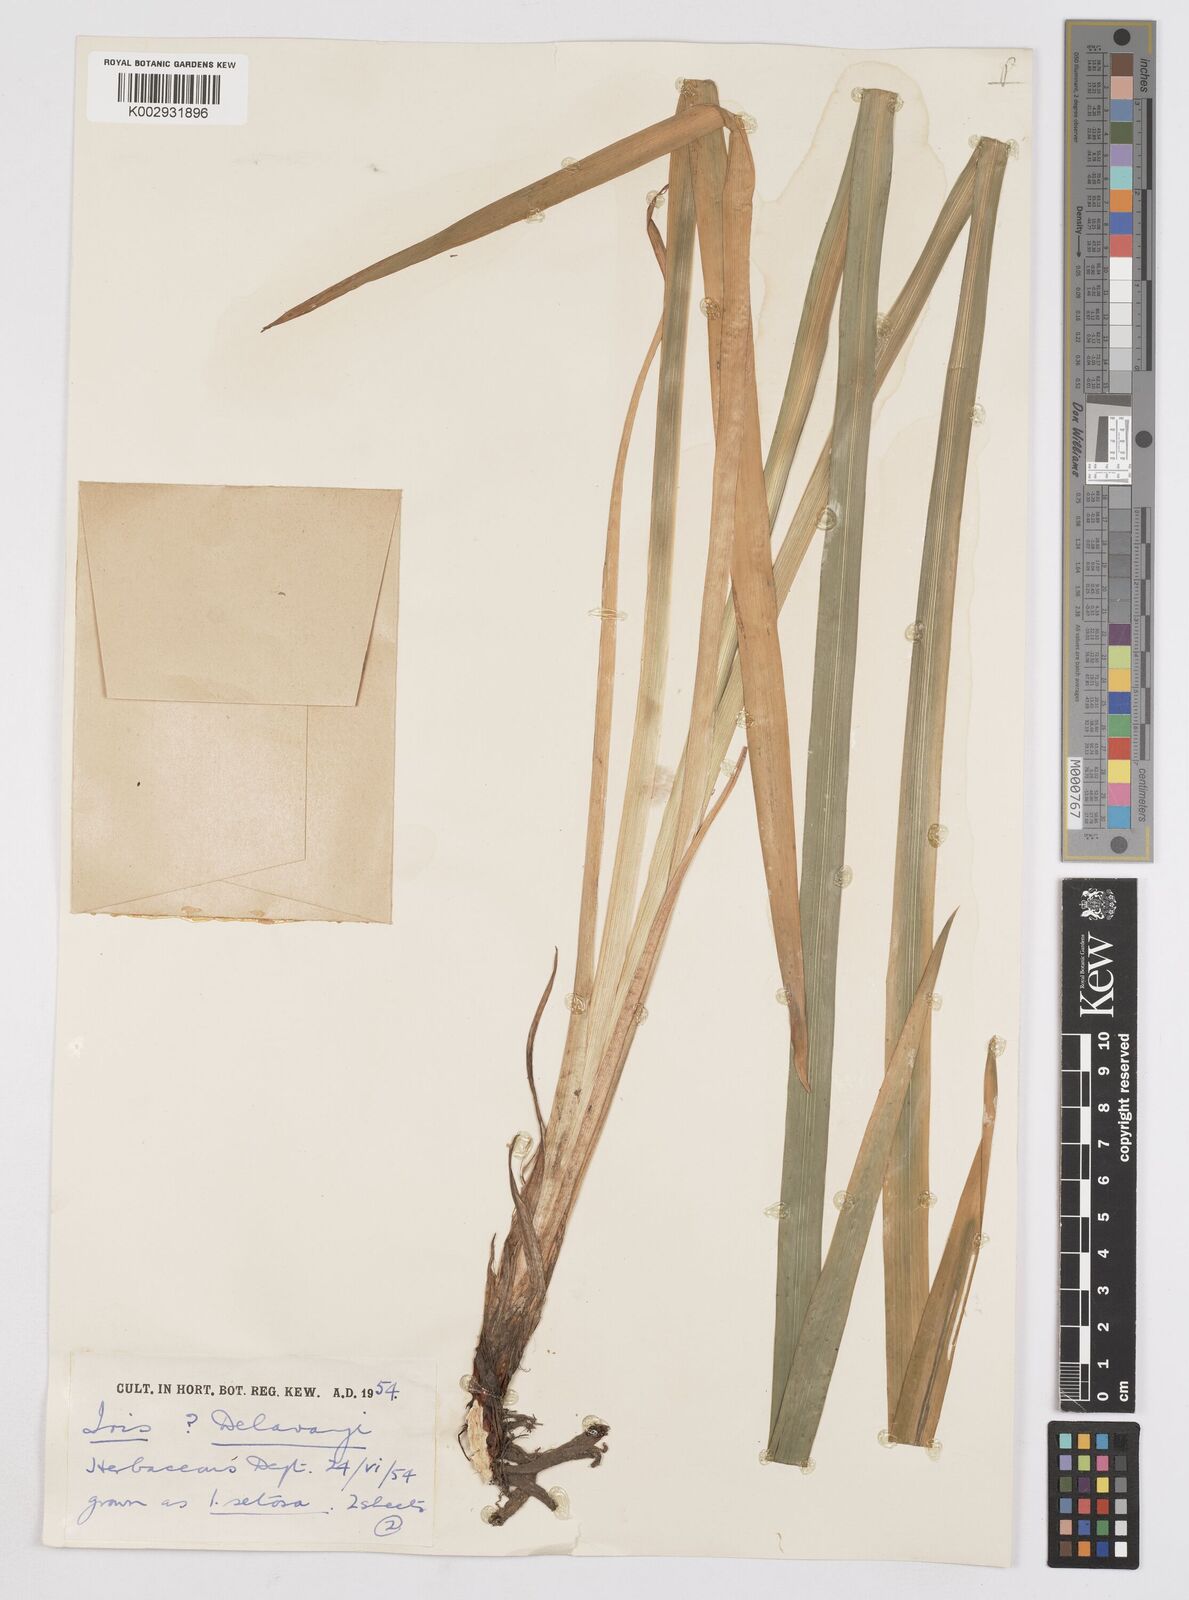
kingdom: Plantae
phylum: Tracheophyta
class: Liliopsida
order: Asparagales
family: Iridaceae
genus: Iris
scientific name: Iris delavayi
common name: Long-scape iris
